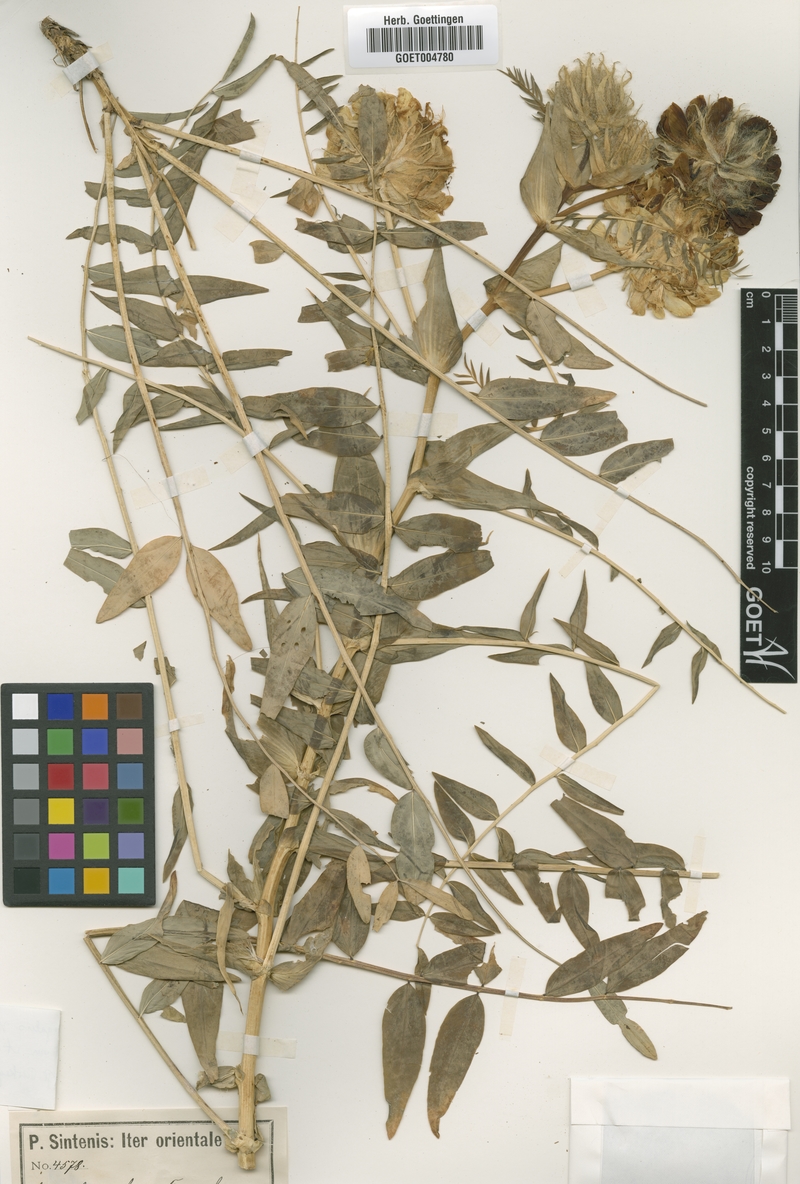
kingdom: Plantae
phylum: Tracheophyta
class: Magnoliopsida
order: Fabales
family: Fabaceae
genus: Astragalus
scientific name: Astragalus macrocephalus
